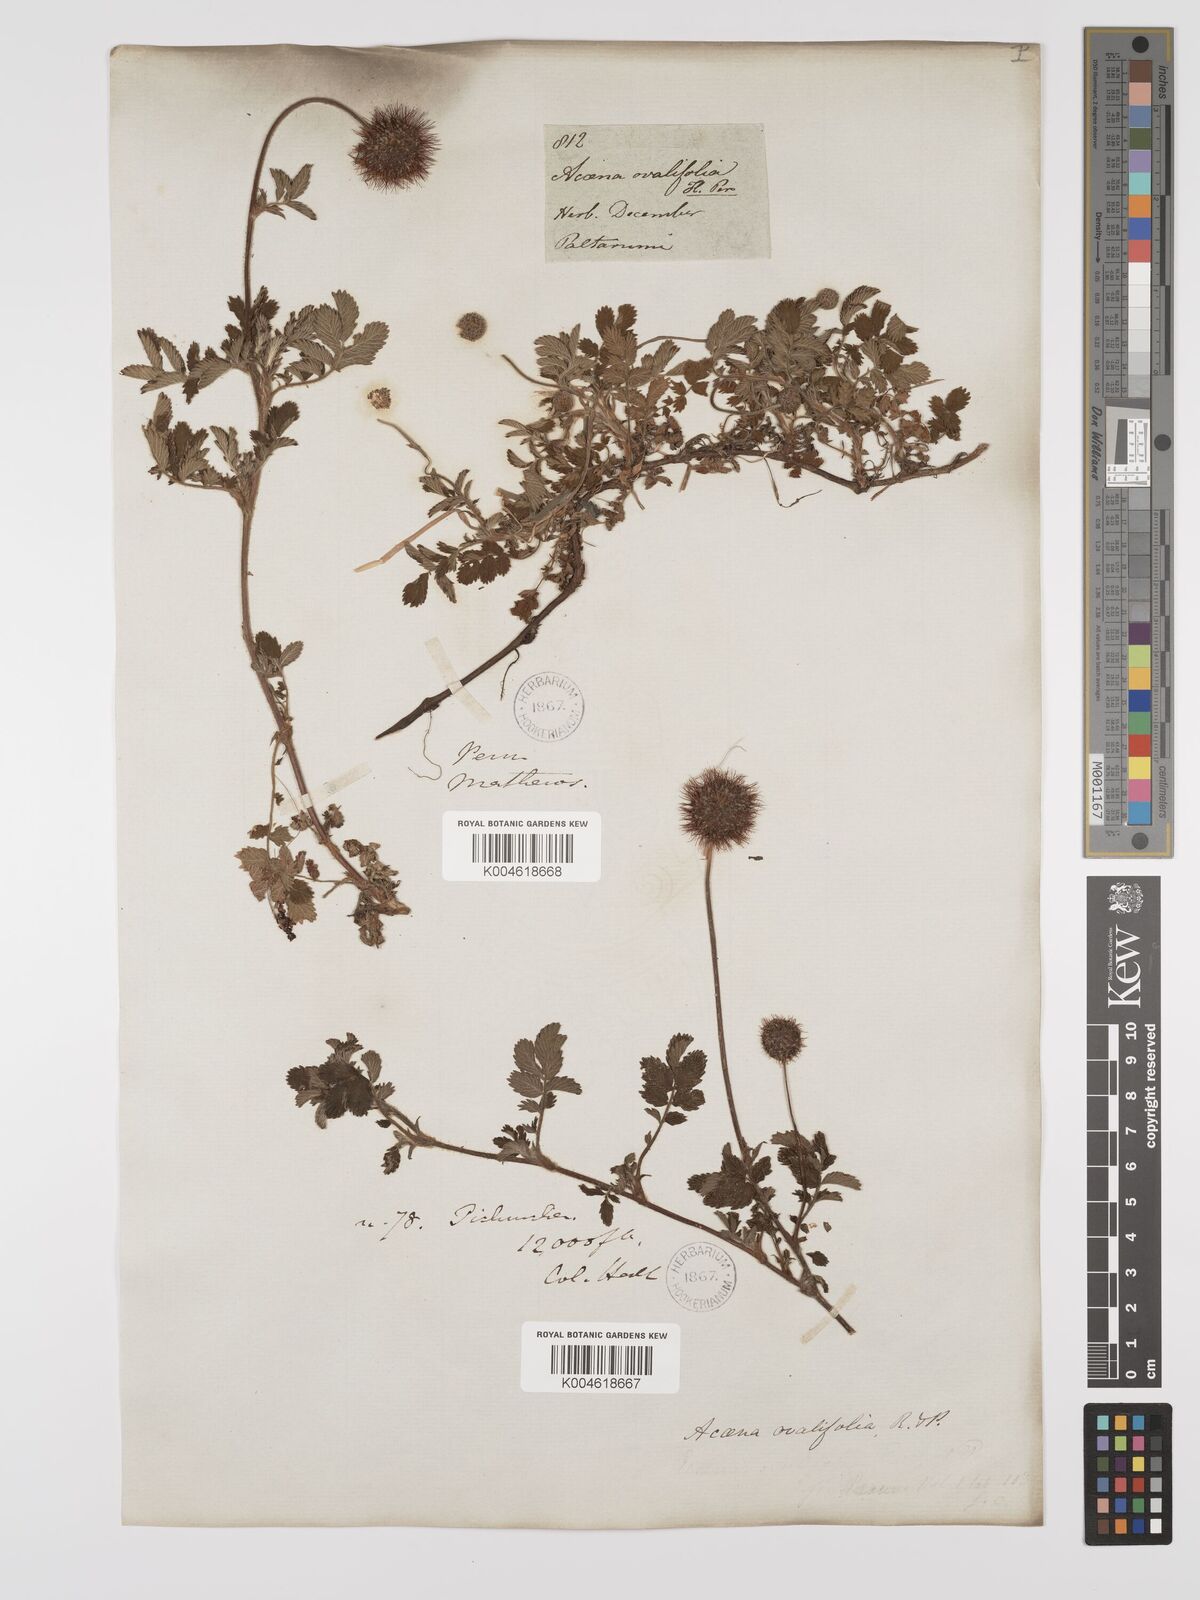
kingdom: Plantae
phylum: Tracheophyta
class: Magnoliopsida
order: Rosales
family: Rosaceae
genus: Acaena
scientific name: Acaena ovalifolia
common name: Two-spined acaena
